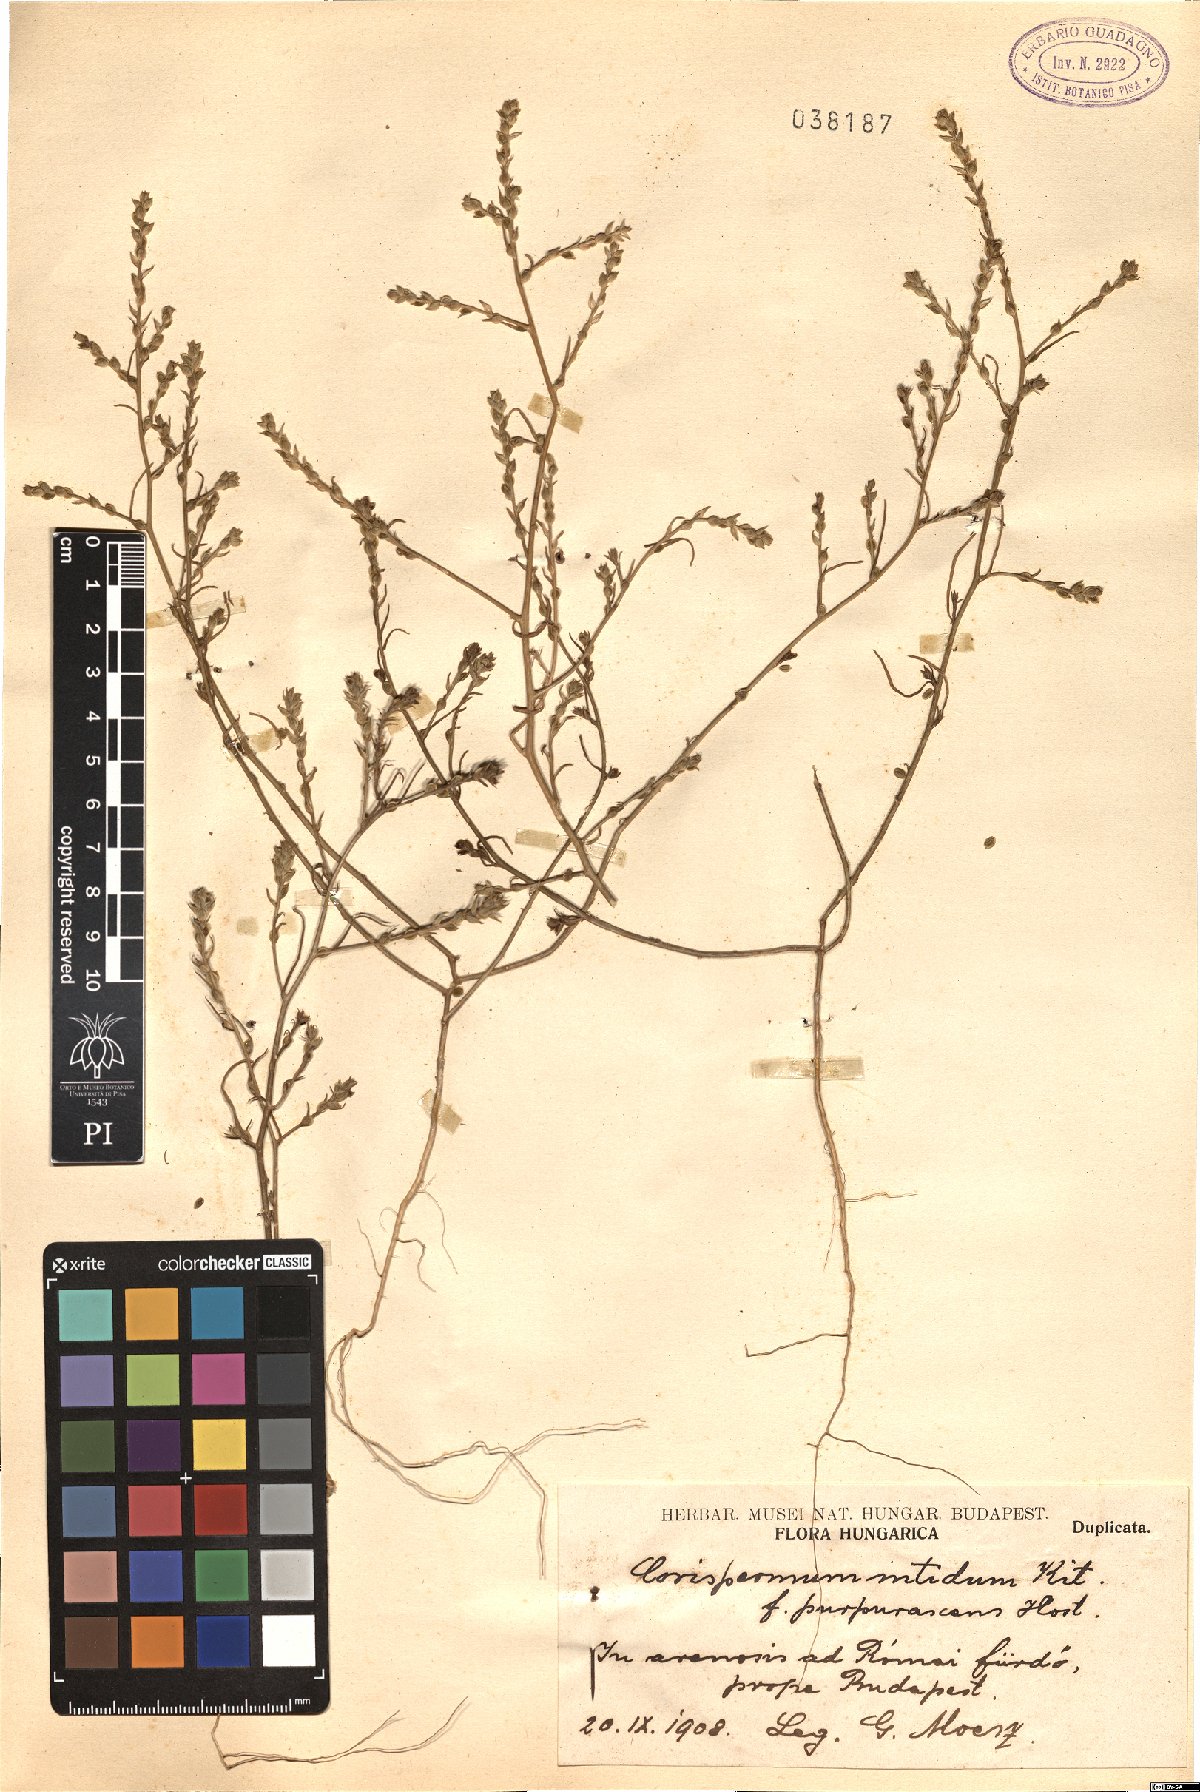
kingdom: Plantae
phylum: Tracheophyta
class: Magnoliopsida
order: Caryophyllales
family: Amaranthaceae
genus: Corispermum
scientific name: Corispermum nitidum
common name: Bugseed
